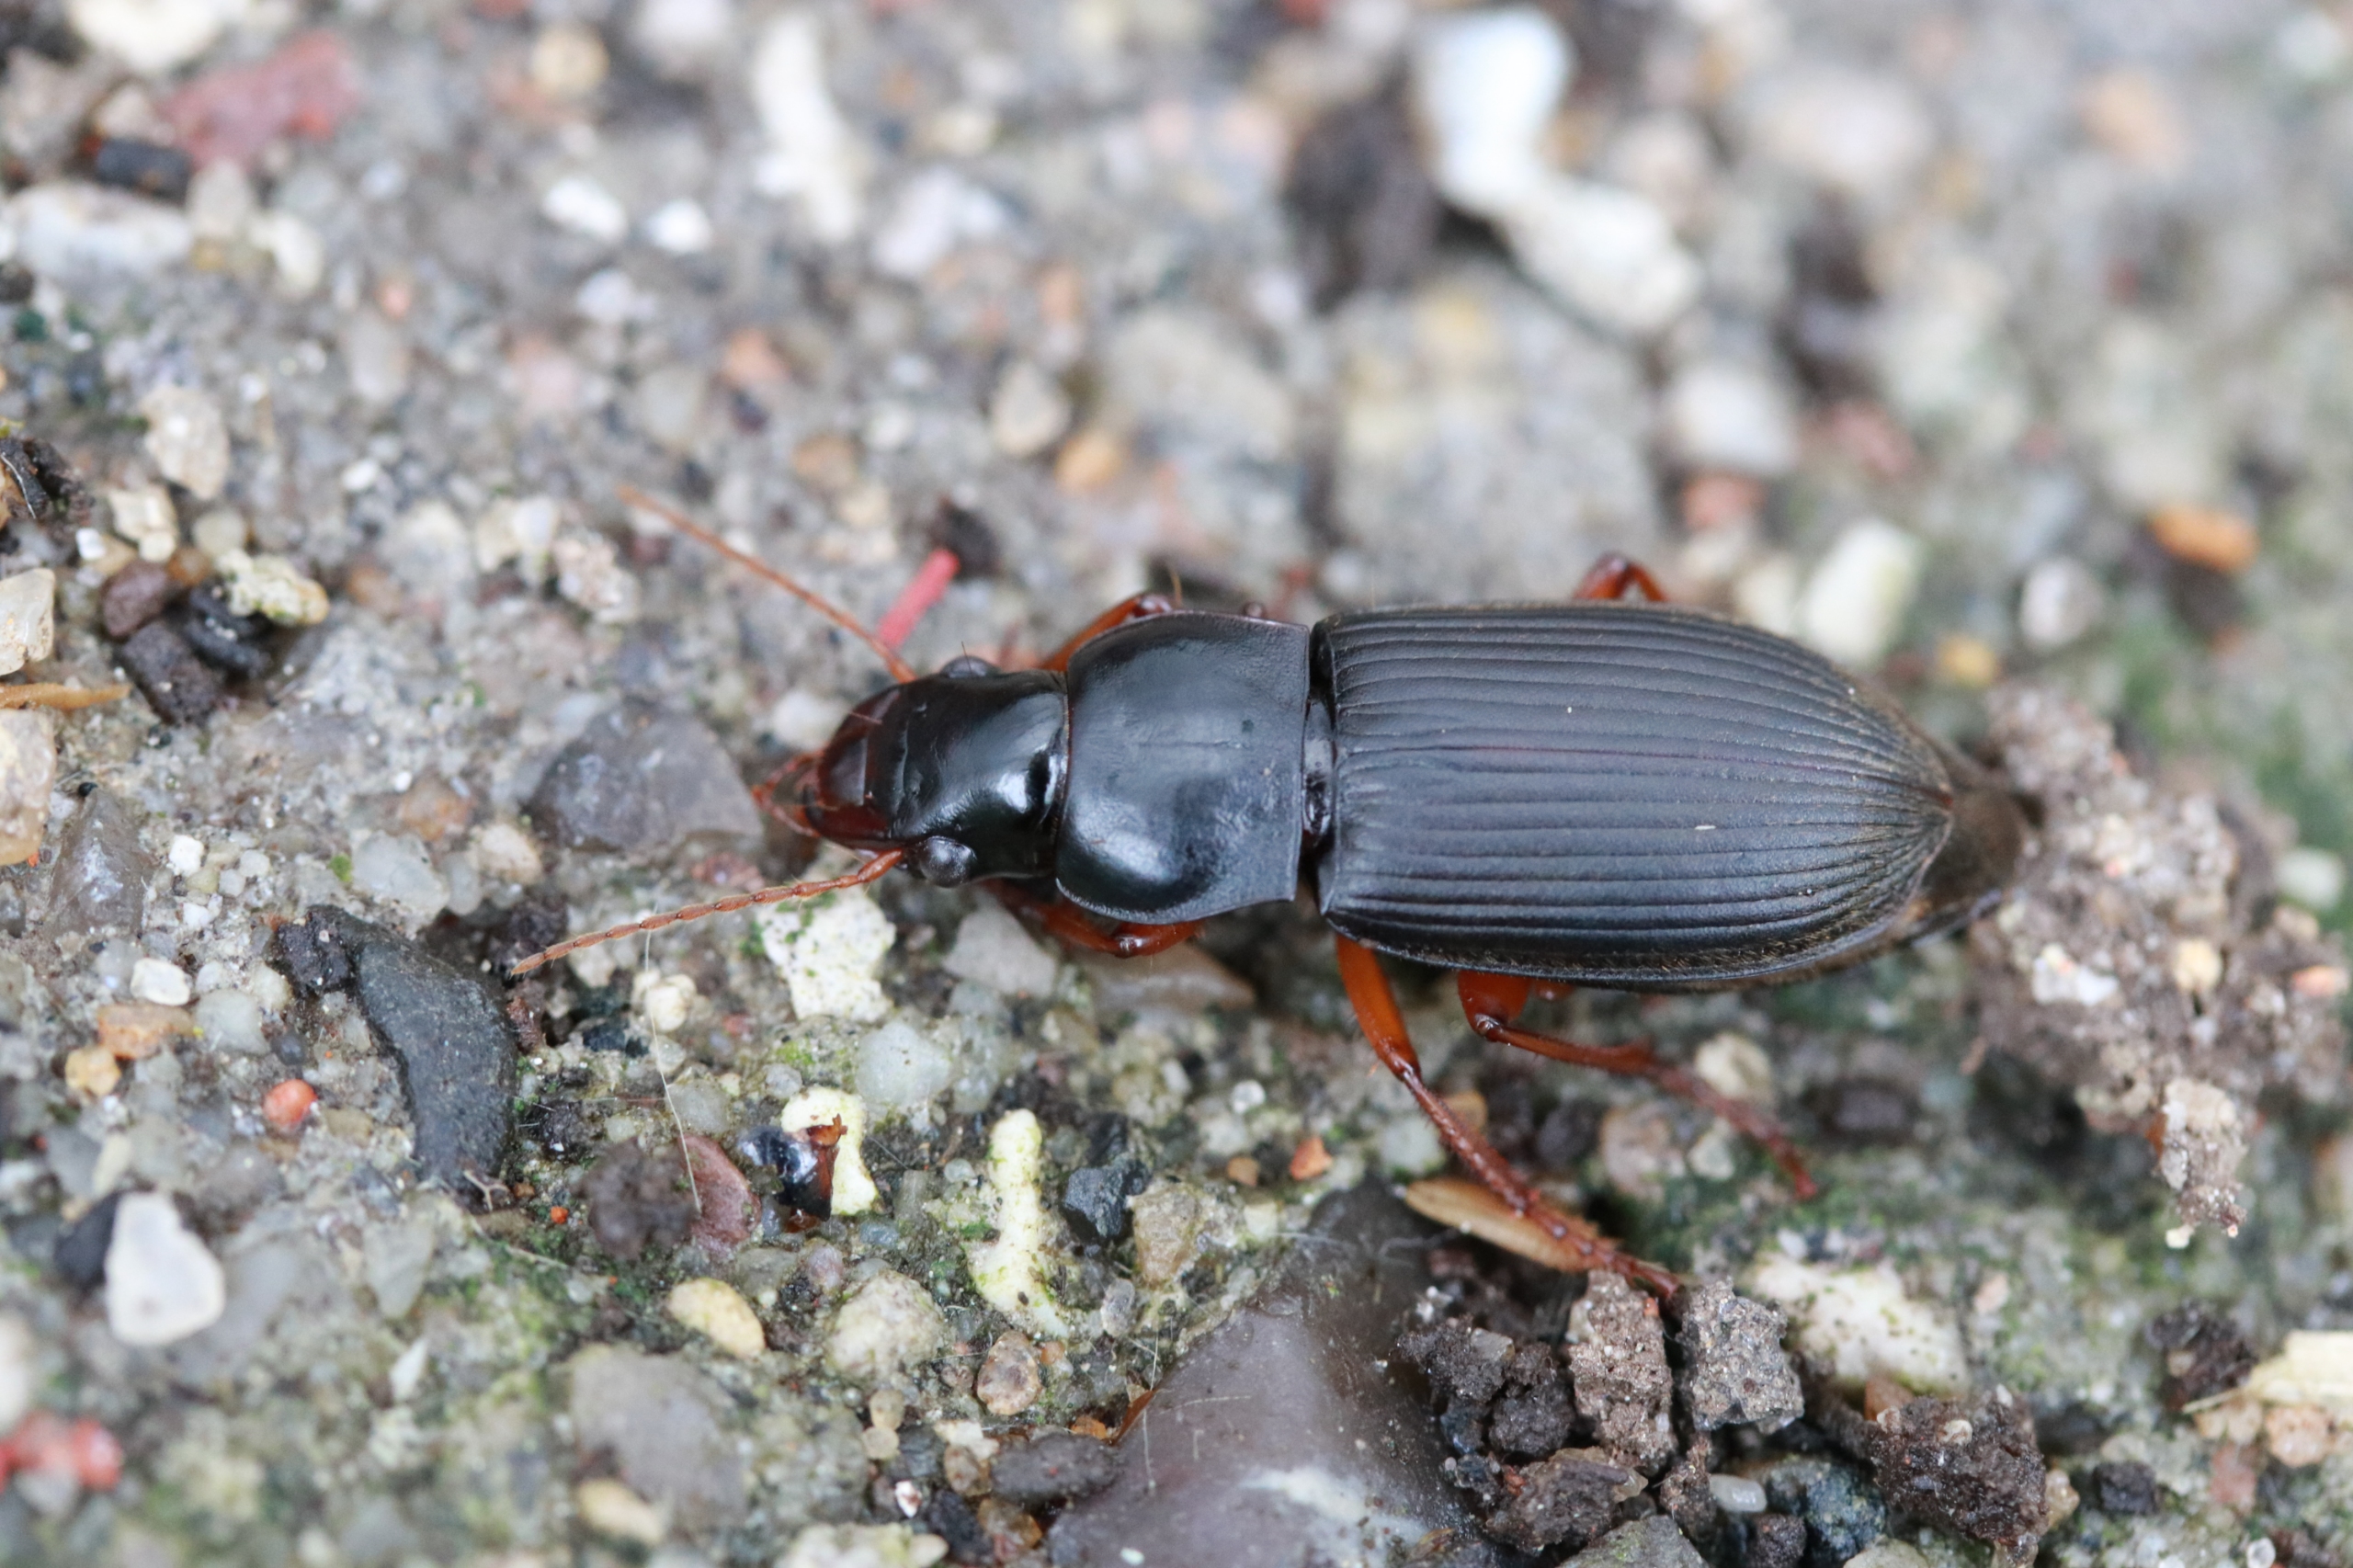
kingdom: Animalia
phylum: Arthropoda
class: Insecta
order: Coleoptera
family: Carabidae
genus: Harpalus
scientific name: Harpalus rufipes
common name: Håret markløber
